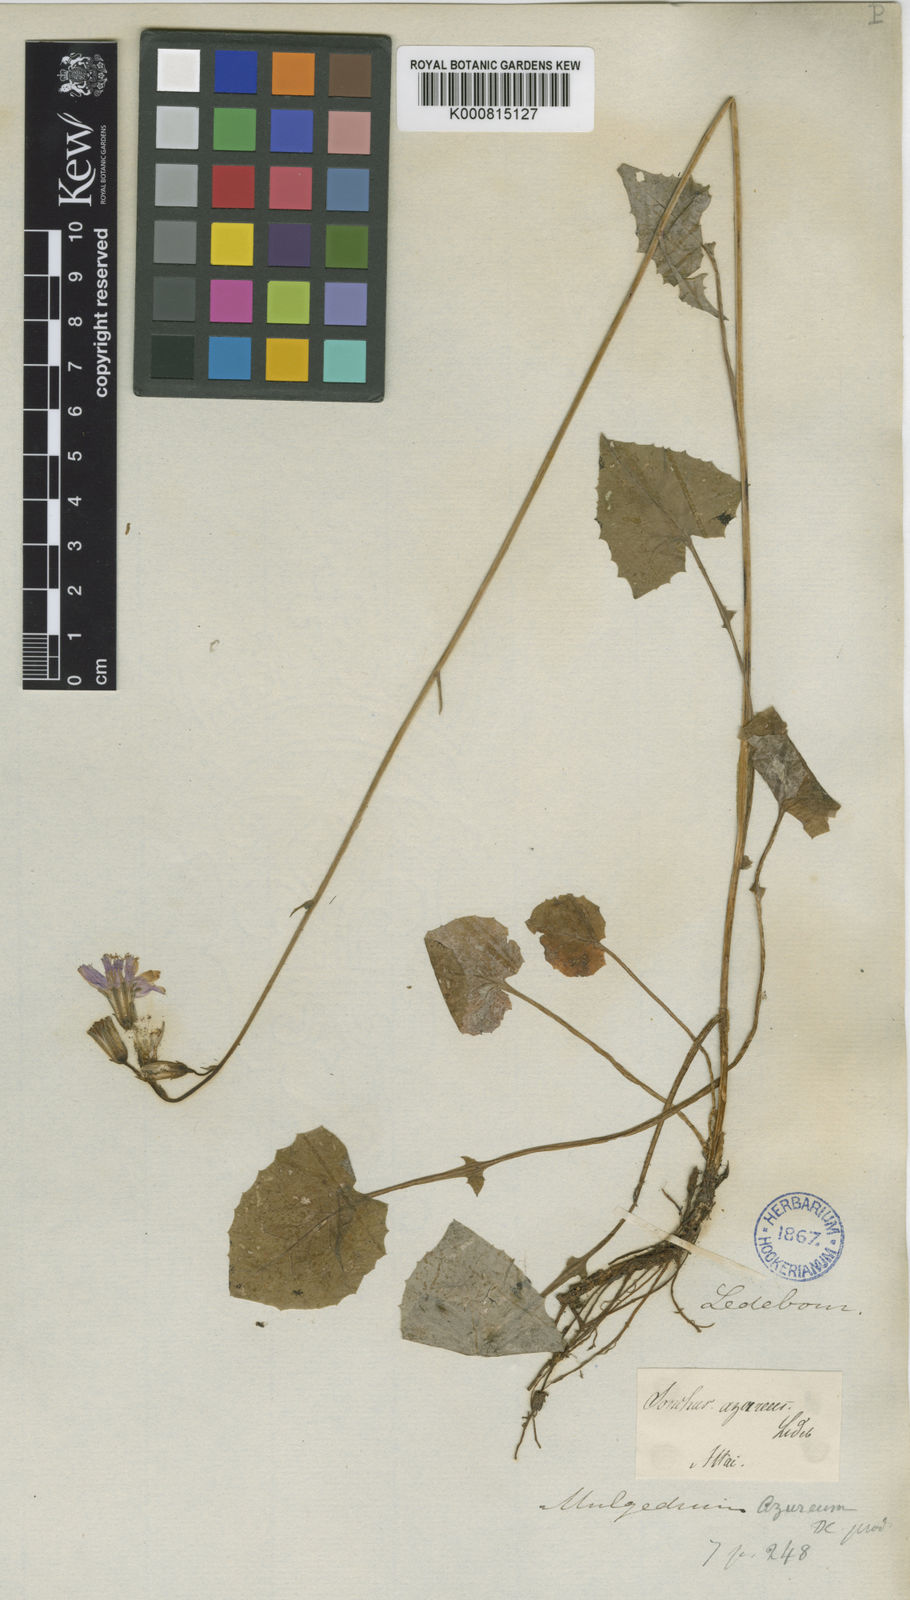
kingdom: Plantae
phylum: Tracheophyta
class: Magnoliopsida
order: Asterales
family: Asteraceae
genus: Cicerbita
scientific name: Cicerbita azurea
